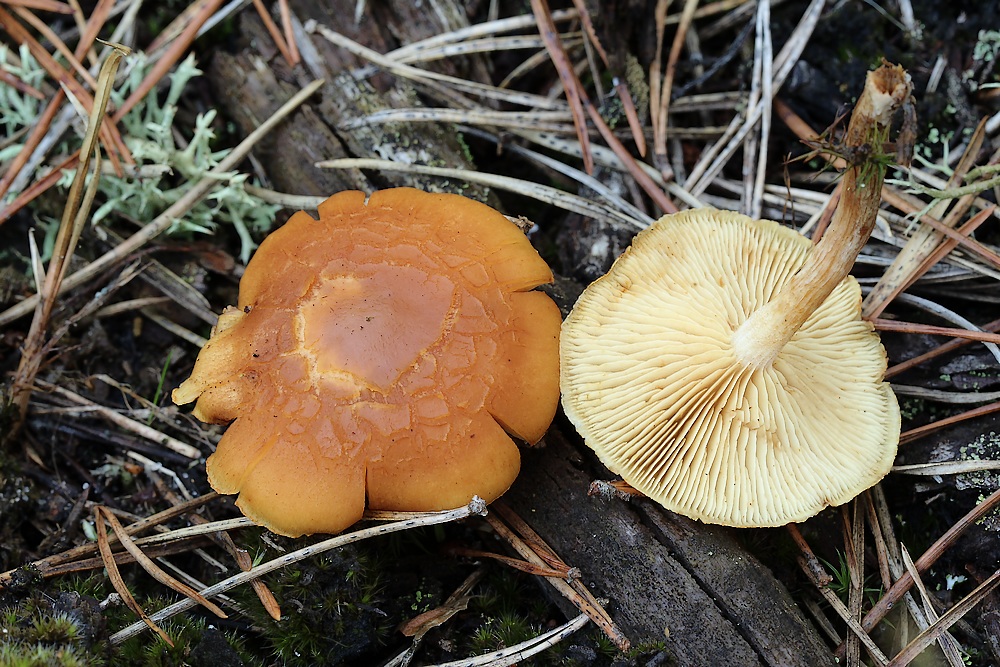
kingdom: Fungi
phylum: Basidiomycota
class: Agaricomycetes
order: Agaricales
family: Hymenogastraceae
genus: Gymnopilus
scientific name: Gymnopilus
